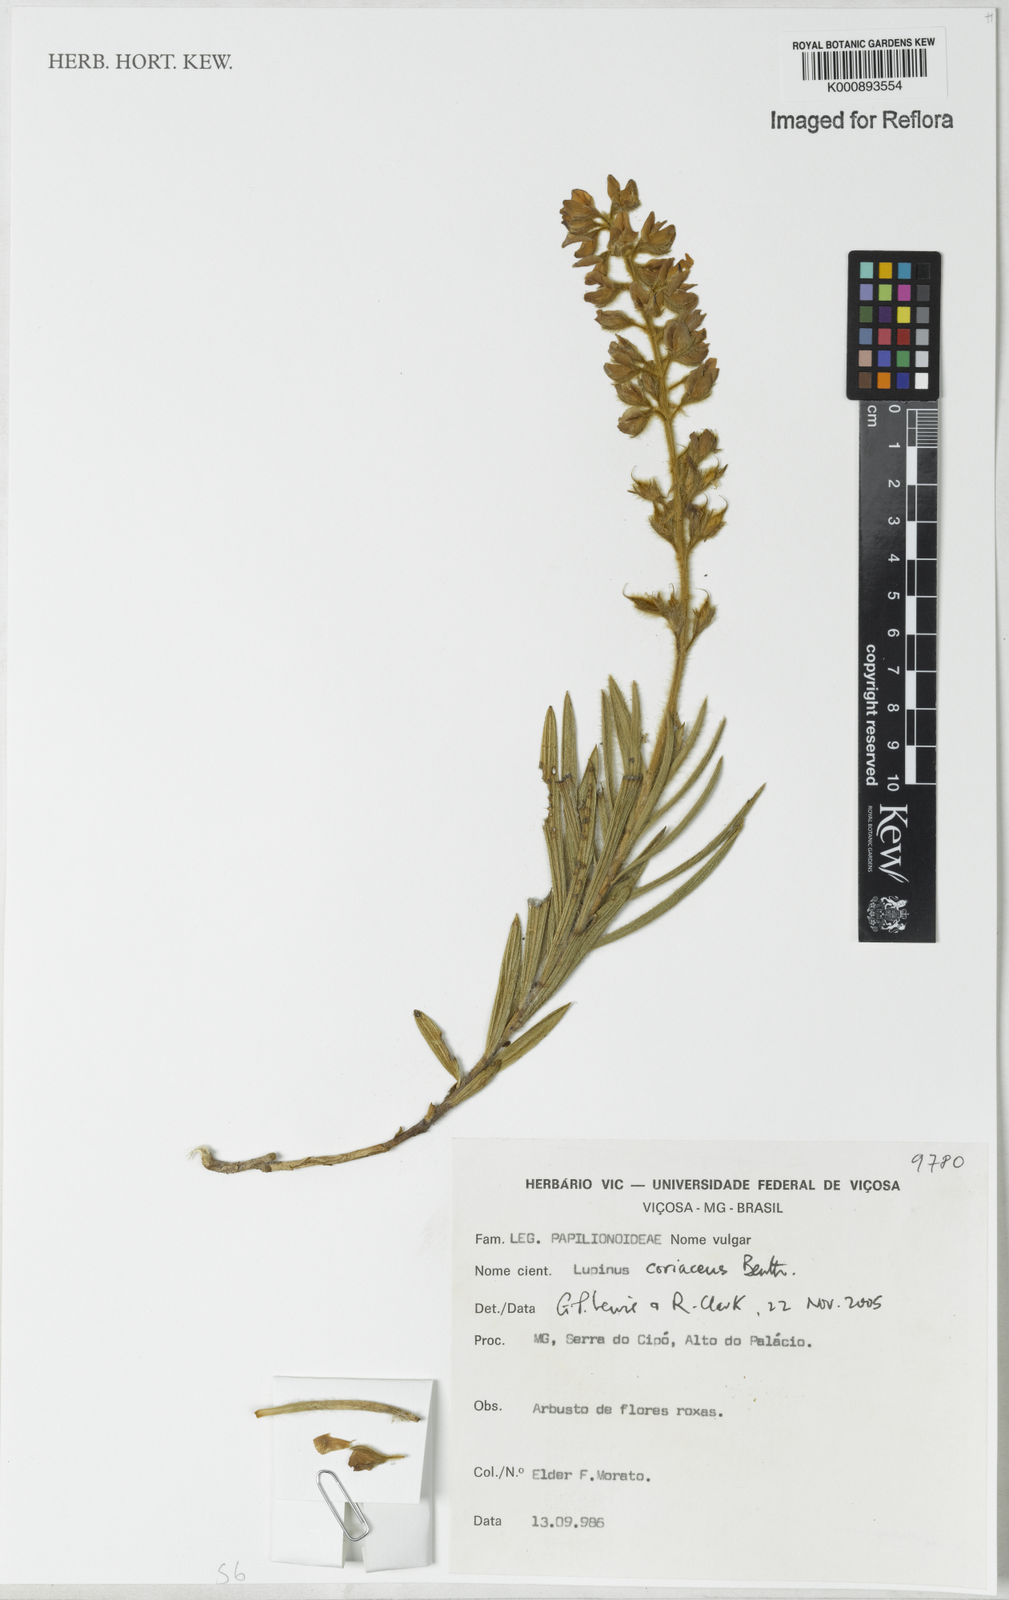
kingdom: Plantae
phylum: Tracheophyta
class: Magnoliopsida
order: Fabales
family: Fabaceae
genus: Lupinus
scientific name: Lupinus coriaceus
